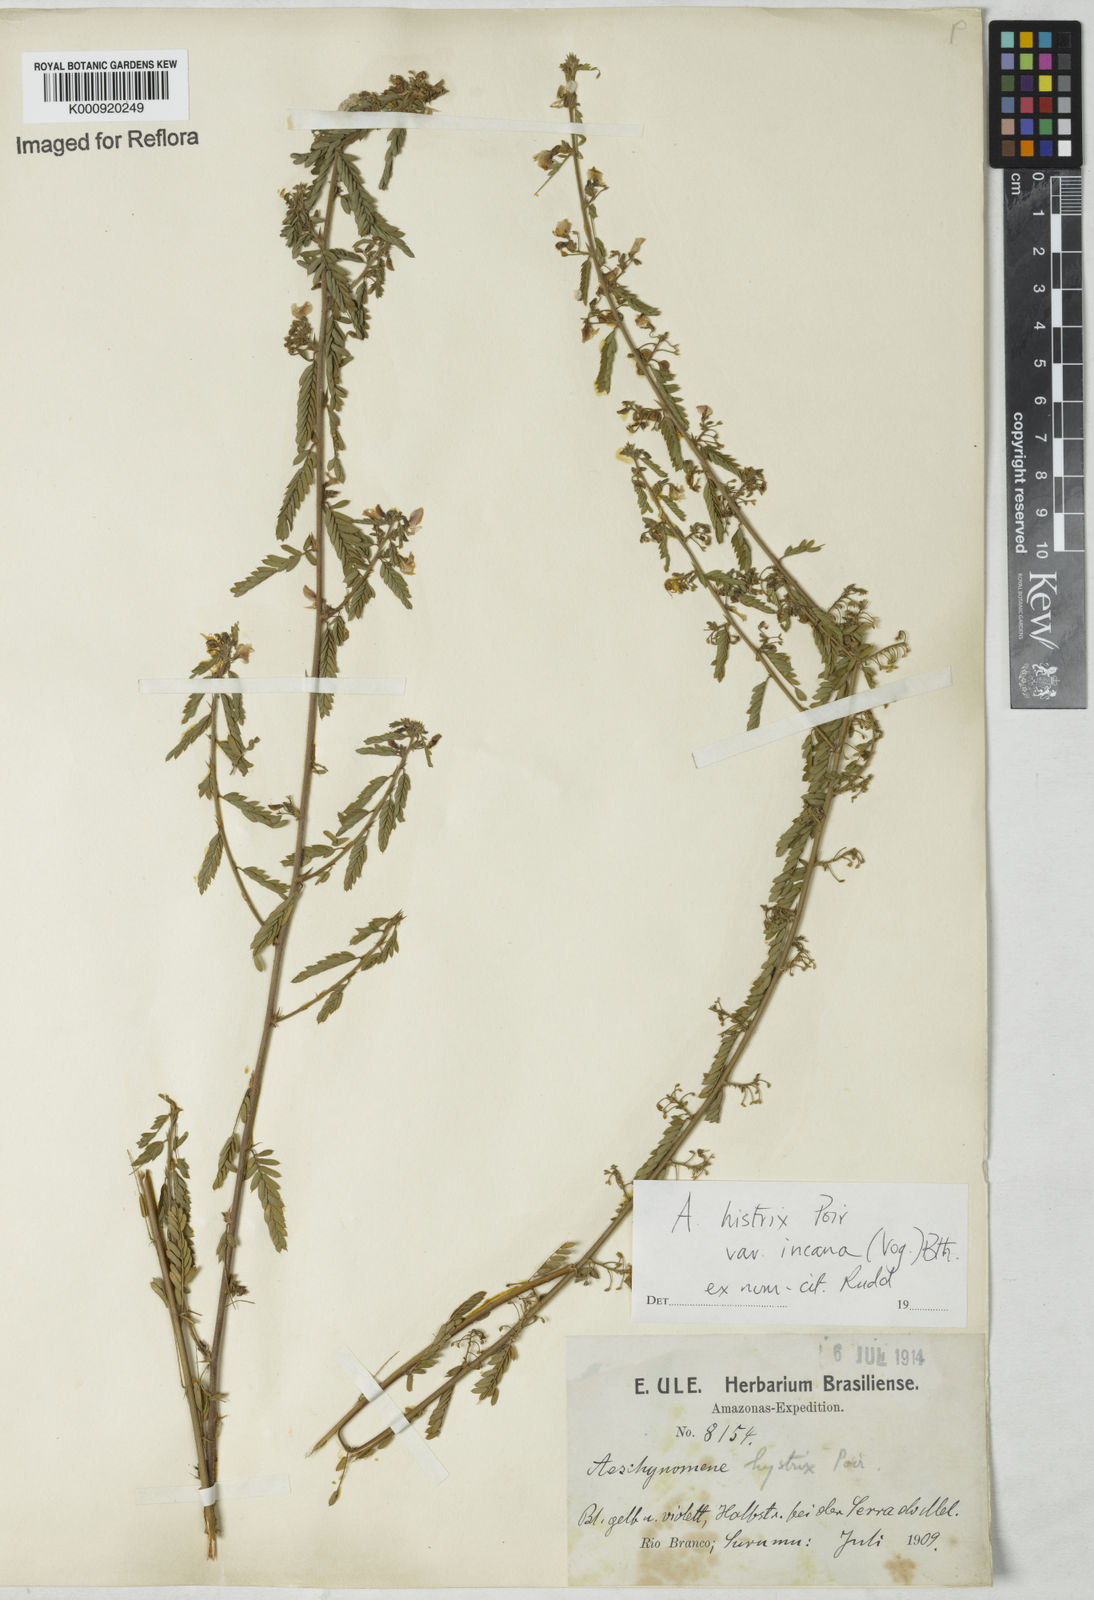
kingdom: Plantae
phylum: Tracheophyta
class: Magnoliopsida
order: Fabales
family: Fabaceae
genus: Ctenodon
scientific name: Ctenodon histrix
